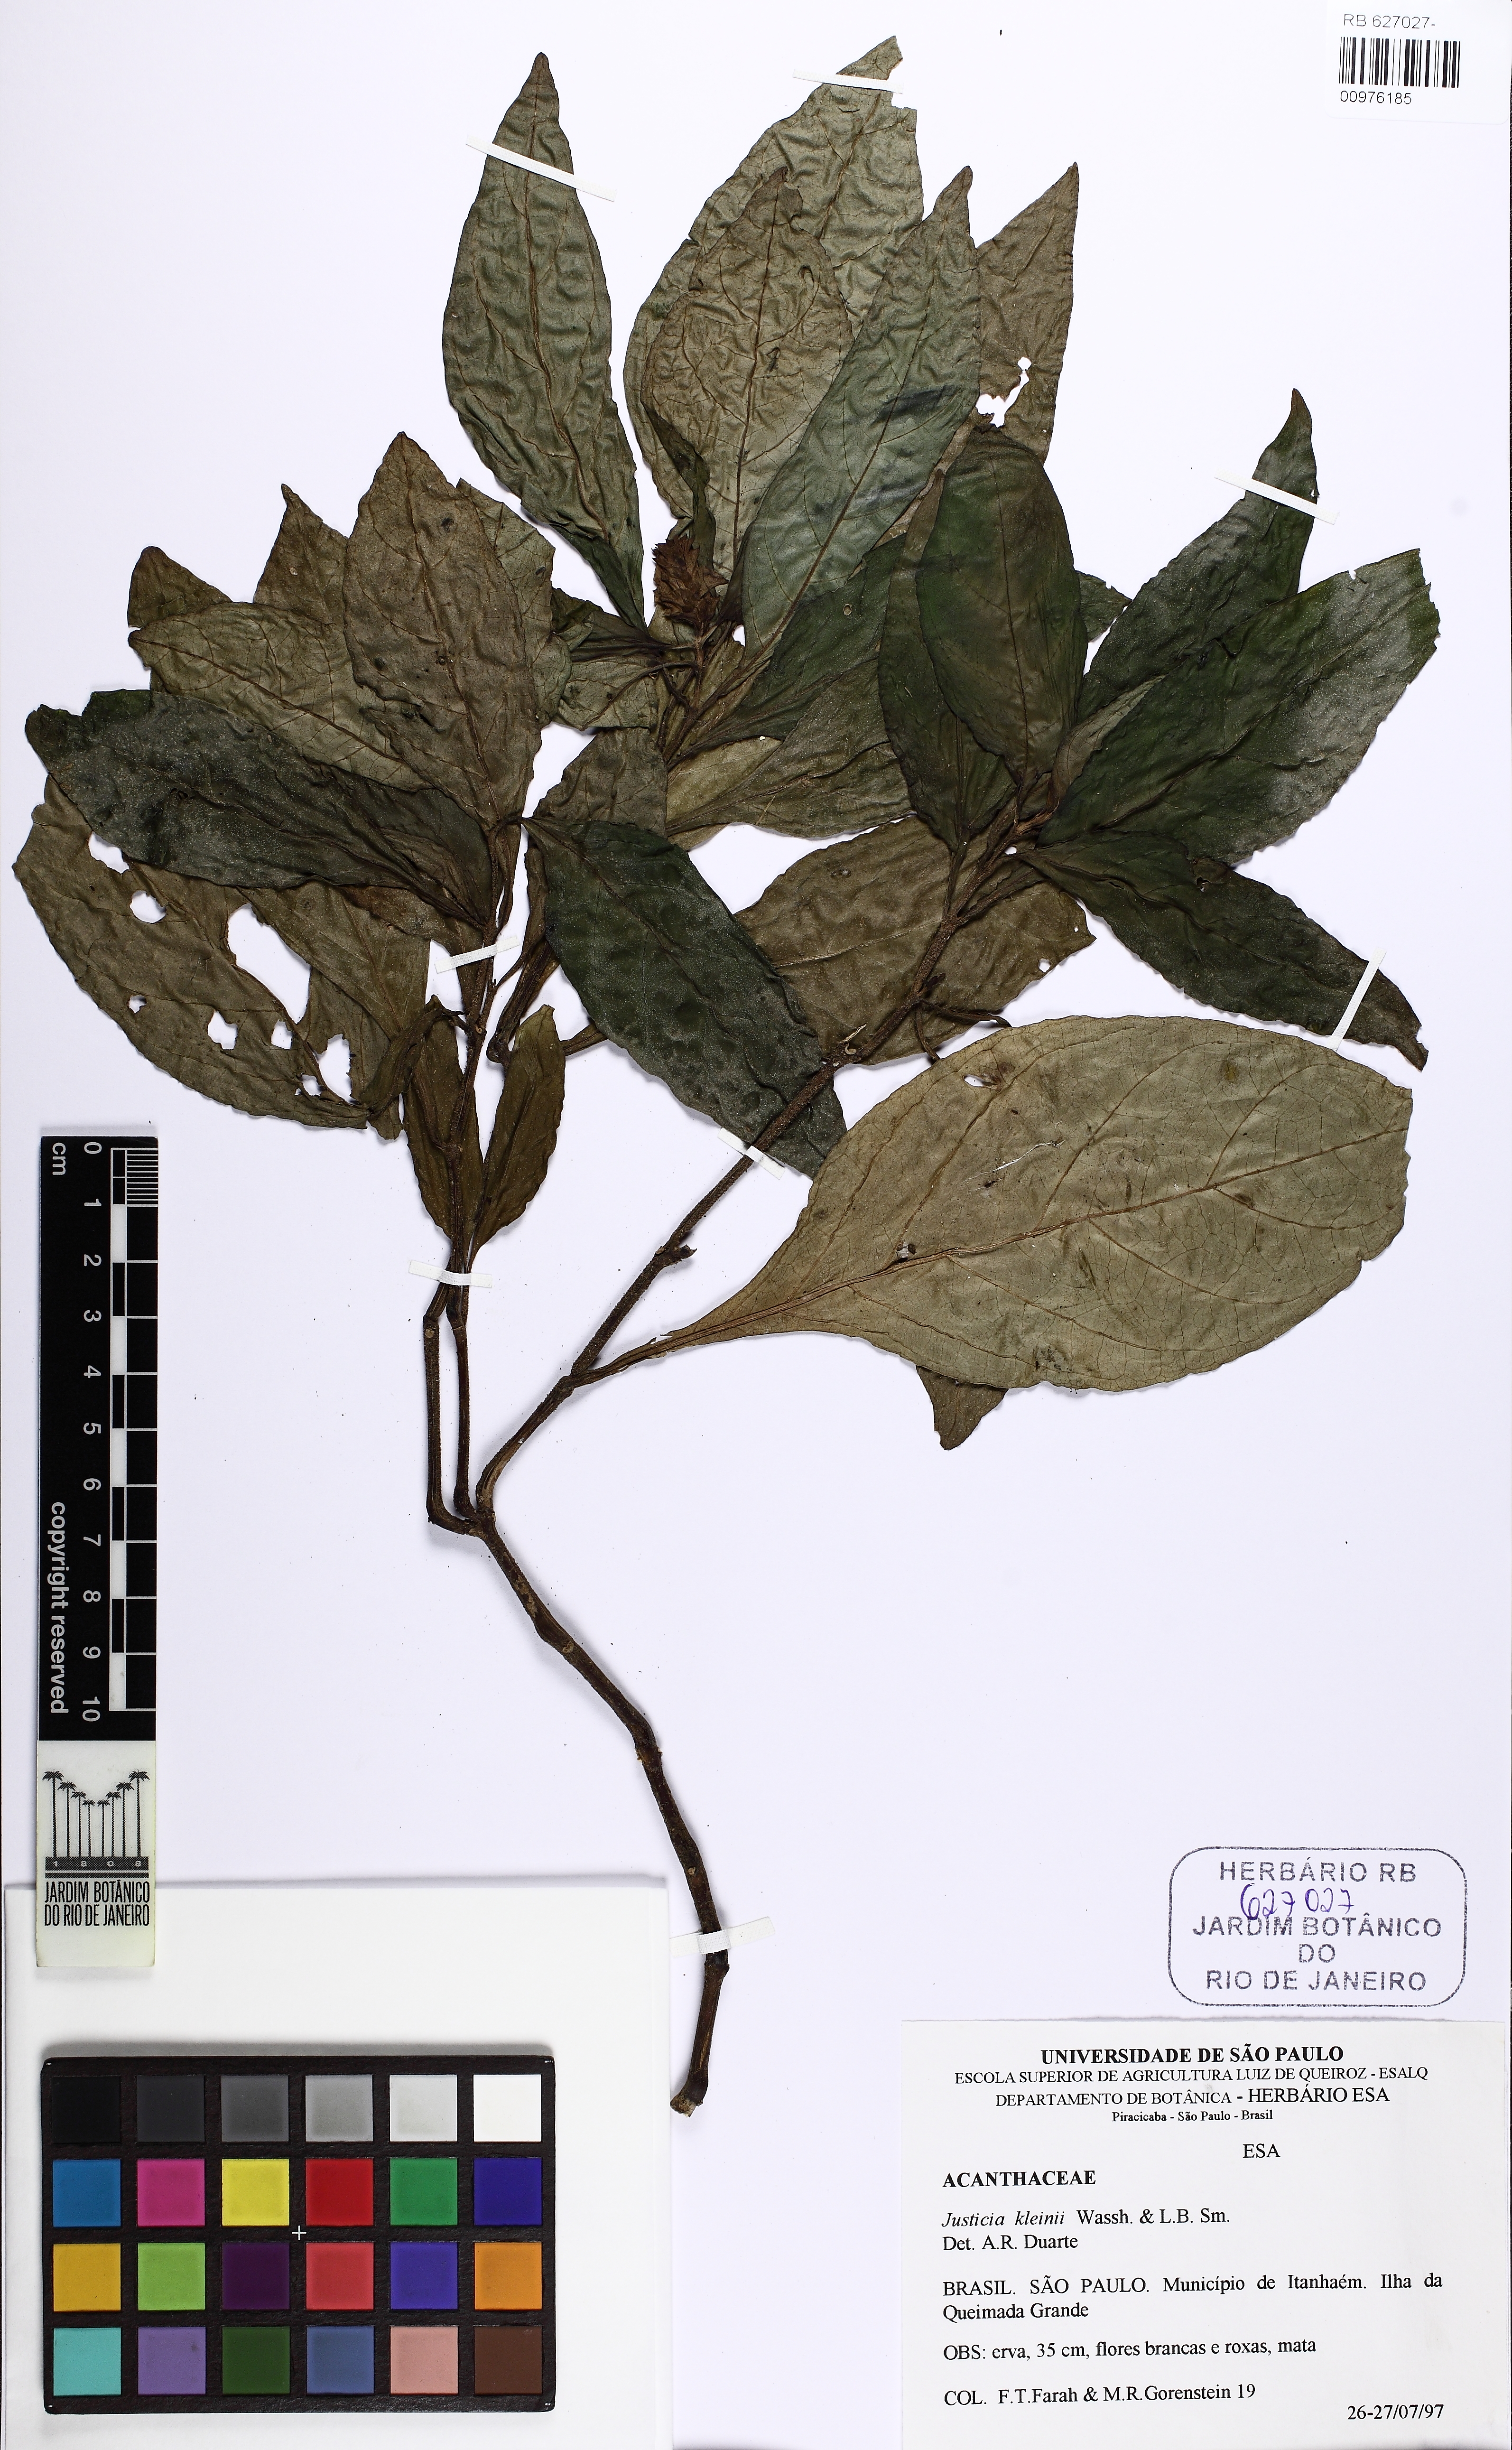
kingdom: Plantae
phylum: Tracheophyta
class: Magnoliopsida
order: Lamiales
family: Acanthaceae
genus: Justicia
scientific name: Justicia kleinii
